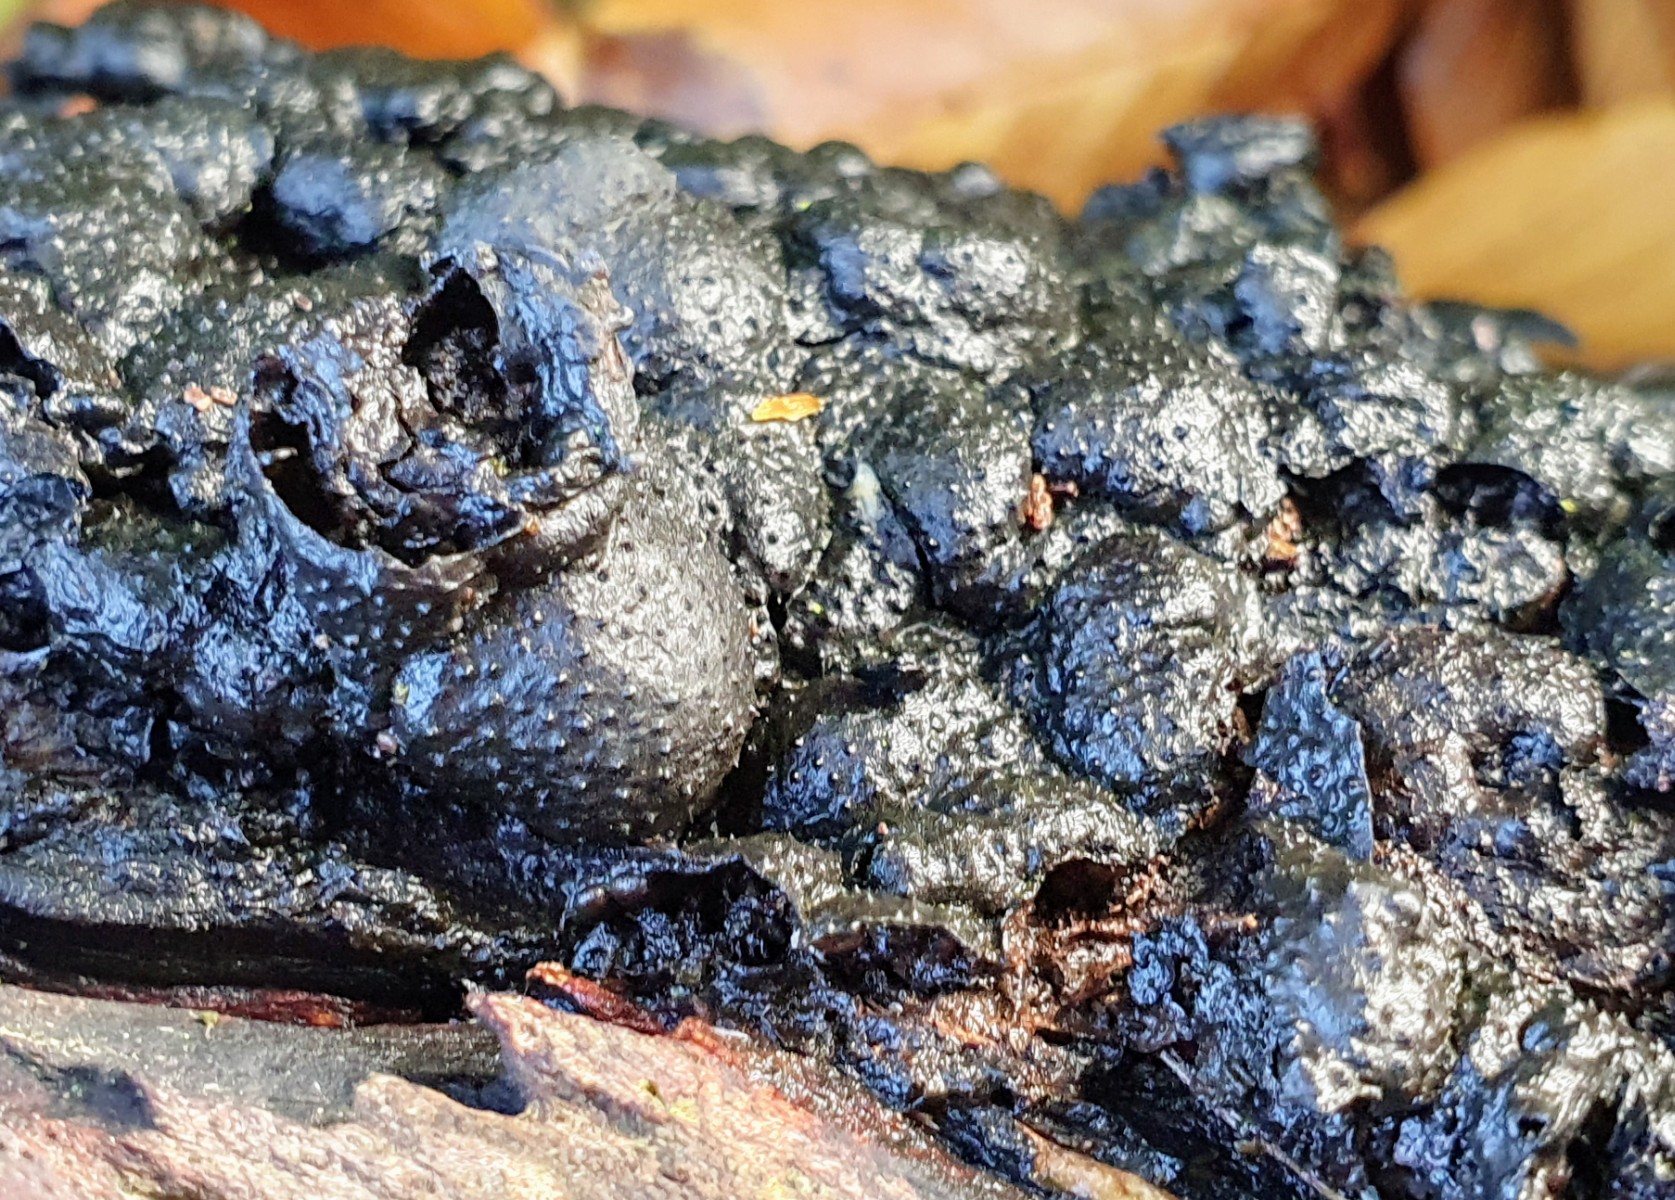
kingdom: Fungi
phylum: Ascomycota
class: Sordariomycetes
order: Xylariales
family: Xylariaceae
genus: Kretzschmaria
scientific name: Kretzschmaria deusta
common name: stor kulsvamp
